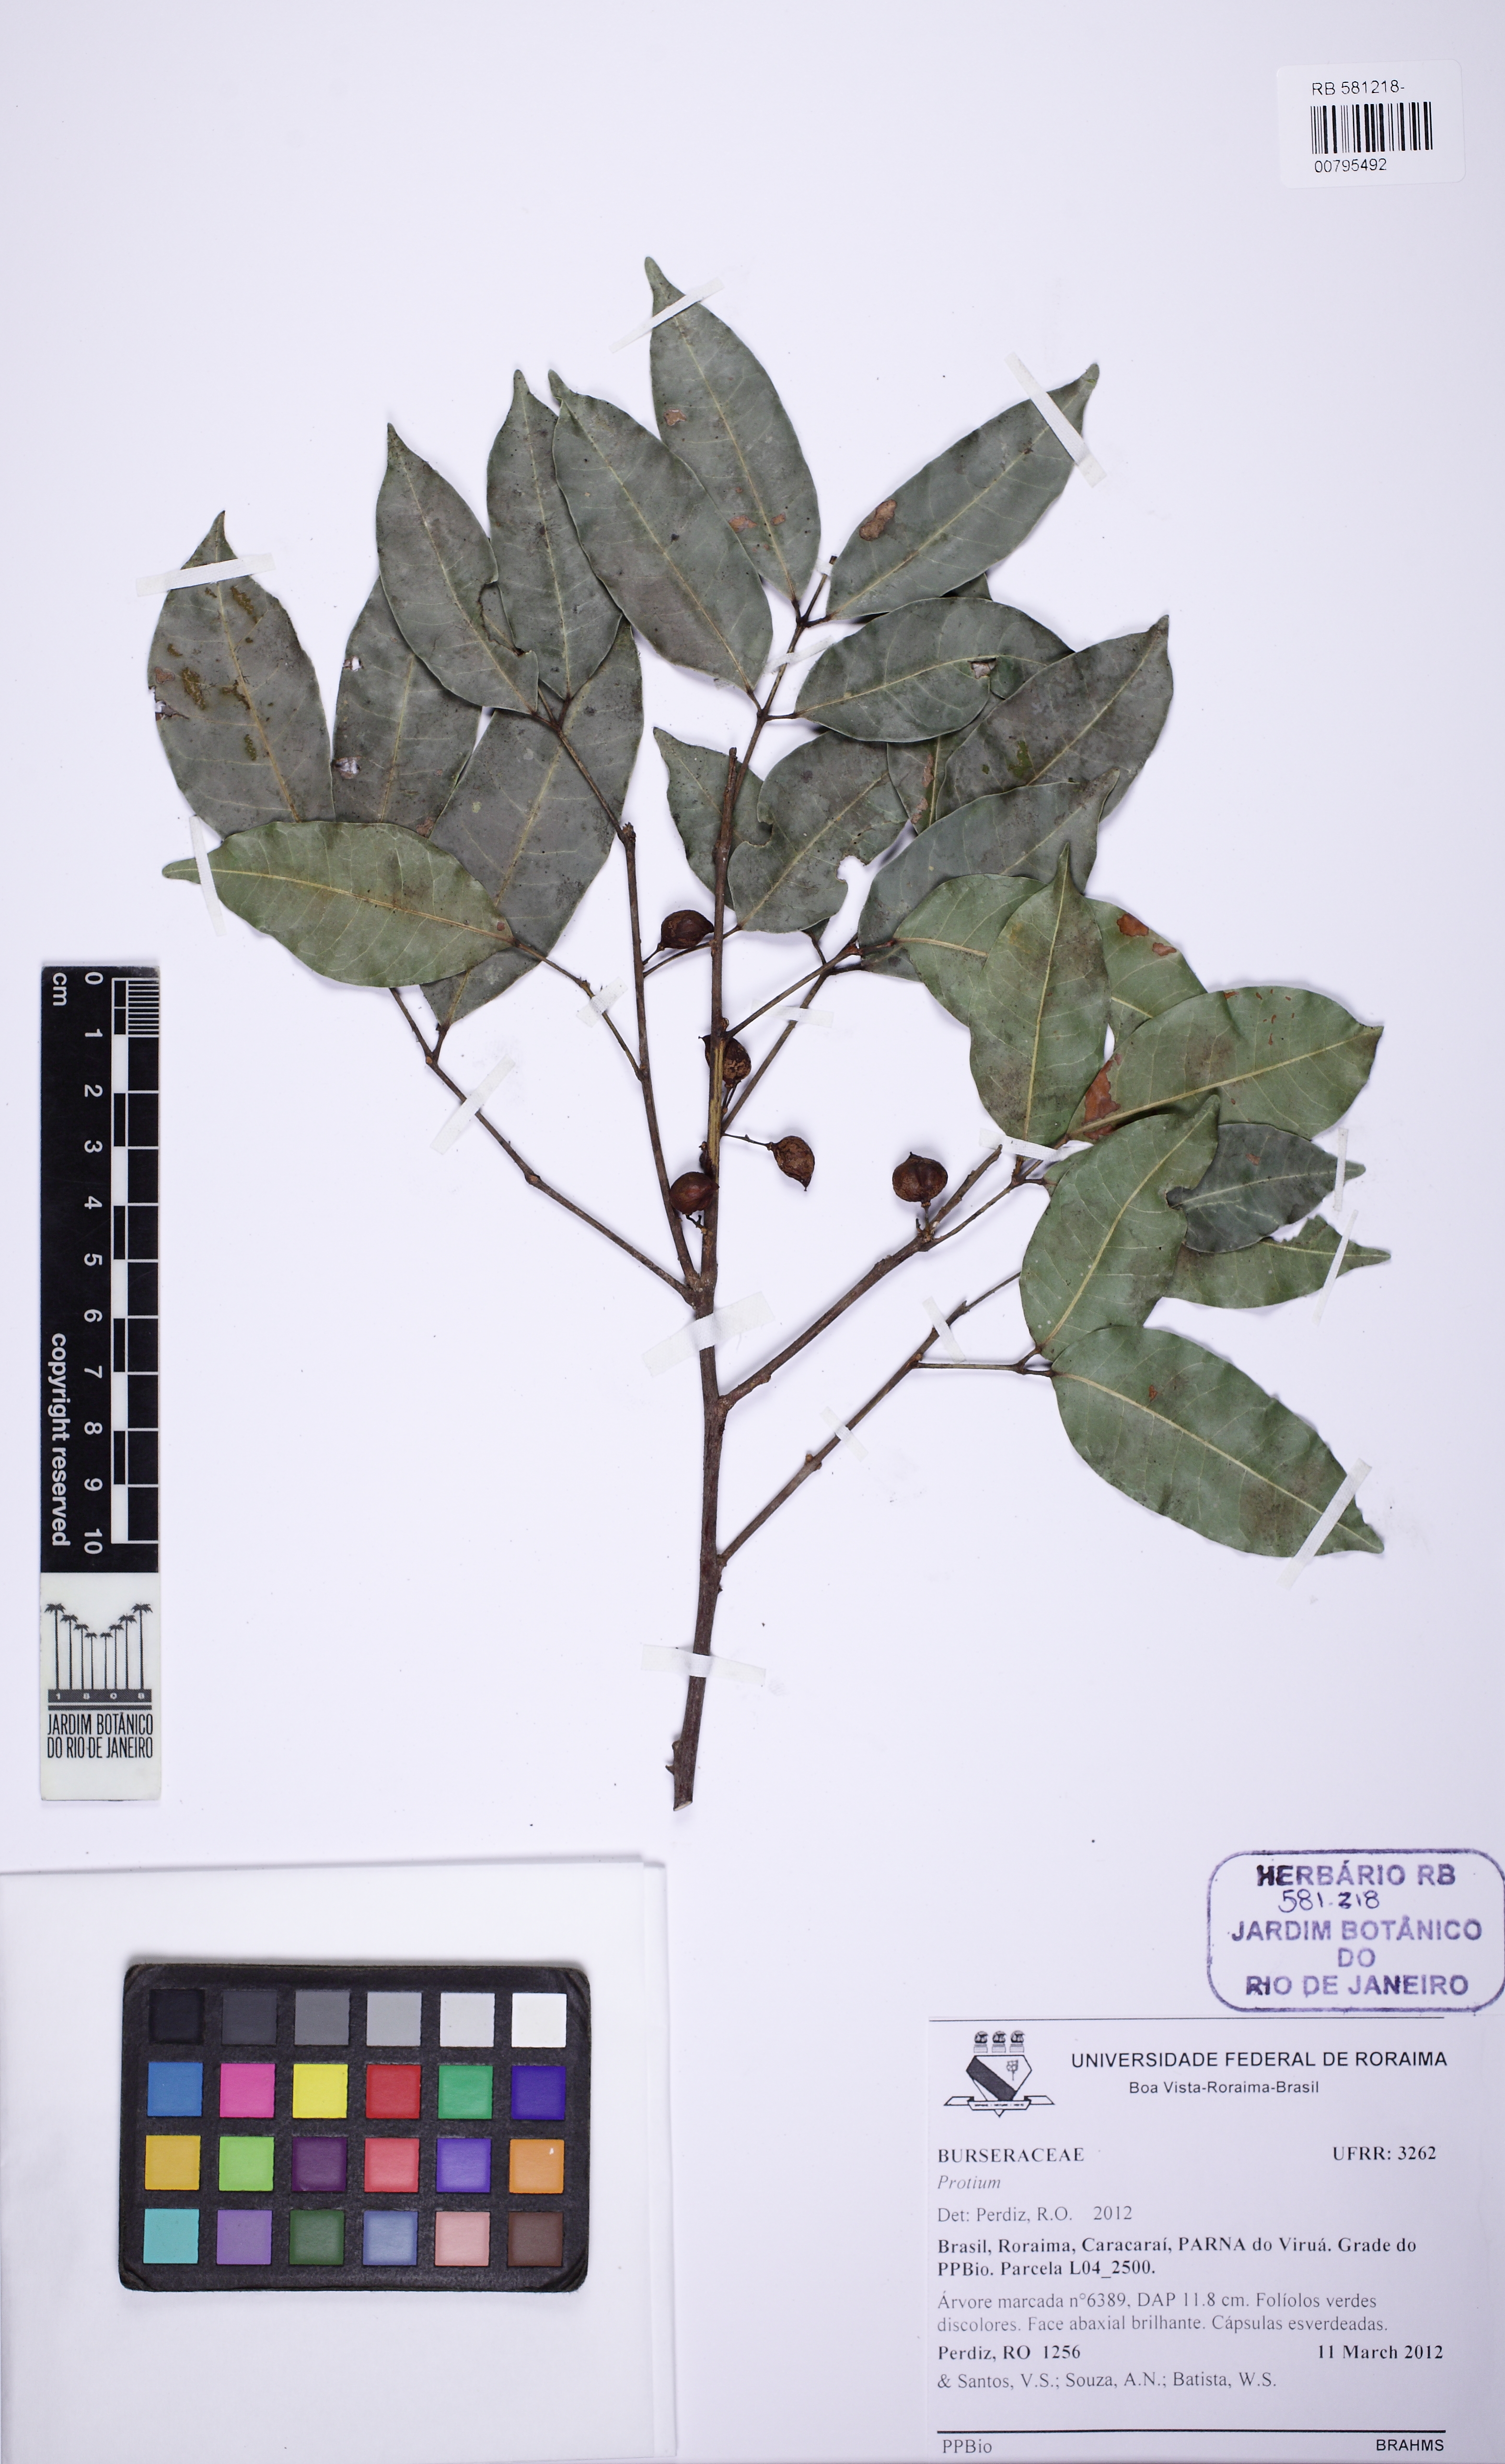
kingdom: Plantae
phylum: Tracheophyta
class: Magnoliopsida
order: Sapindales
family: Burseraceae
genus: Protium
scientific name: Protium heptaphyllum
